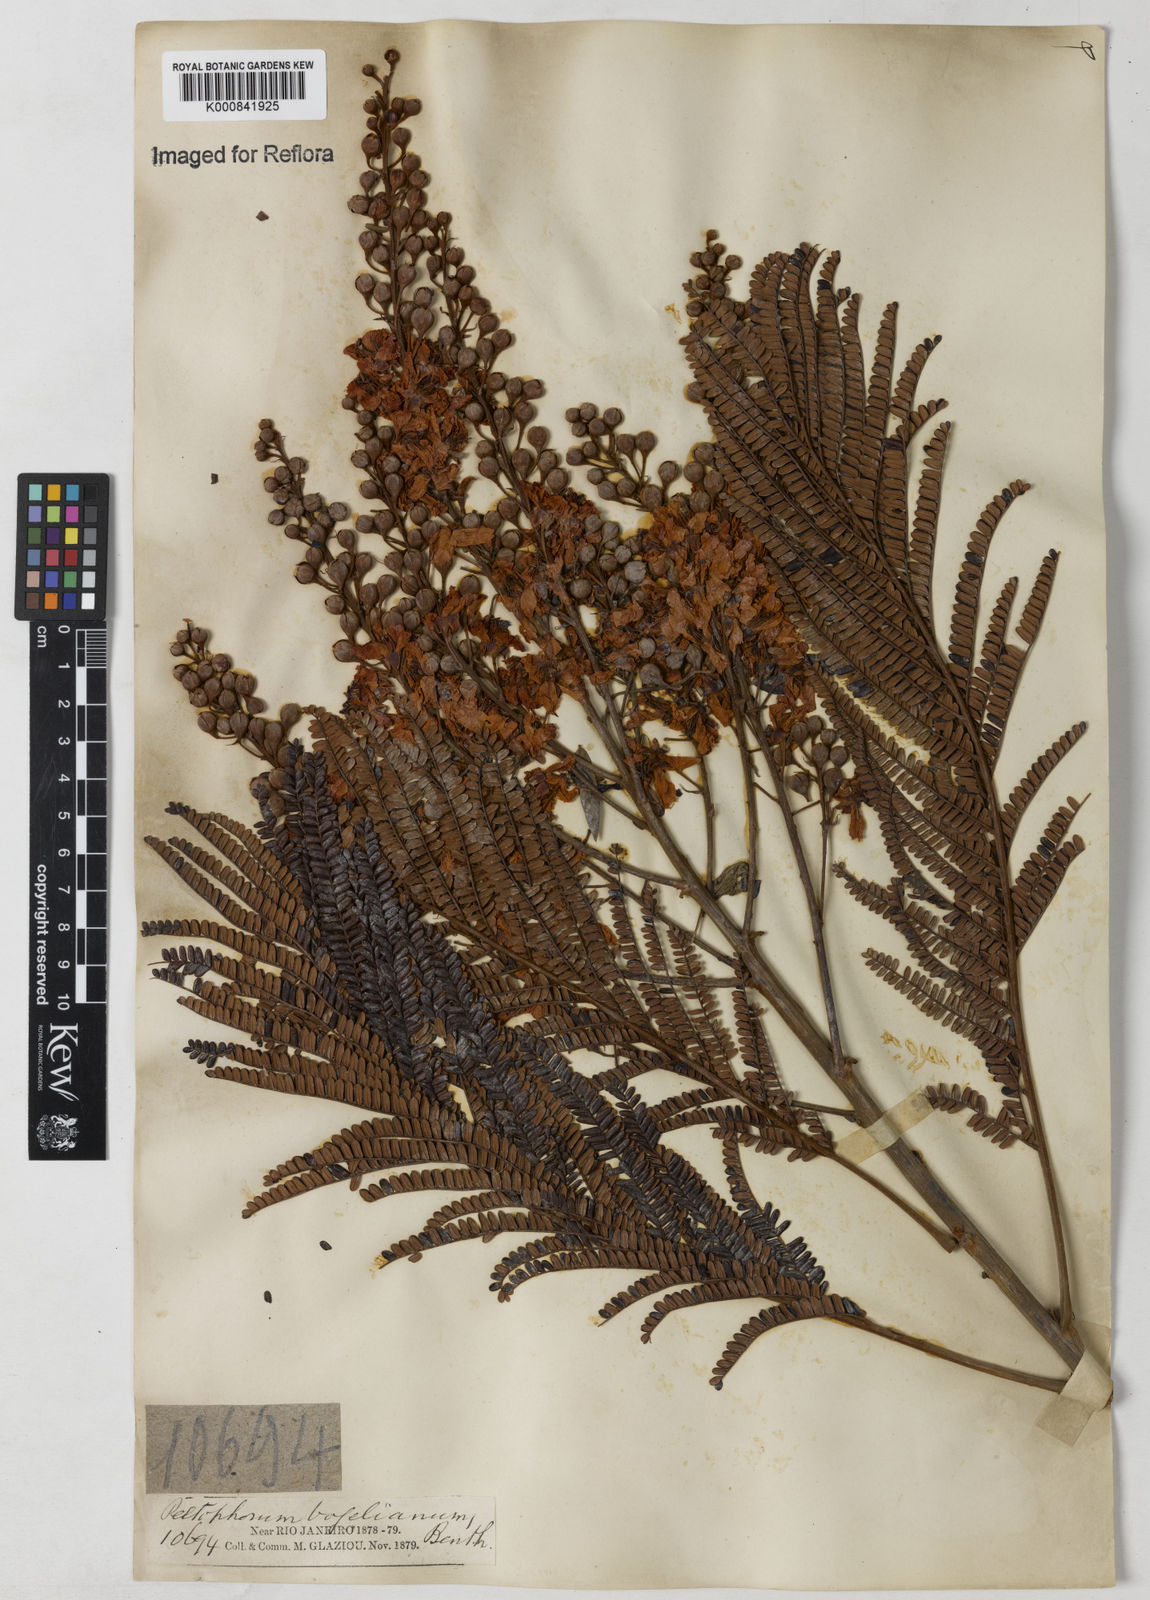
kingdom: Plantae
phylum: Tracheophyta
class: Magnoliopsida
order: Fabales
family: Fabaceae
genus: Peltophorum
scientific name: Peltophorum dubium
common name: Horsebush
